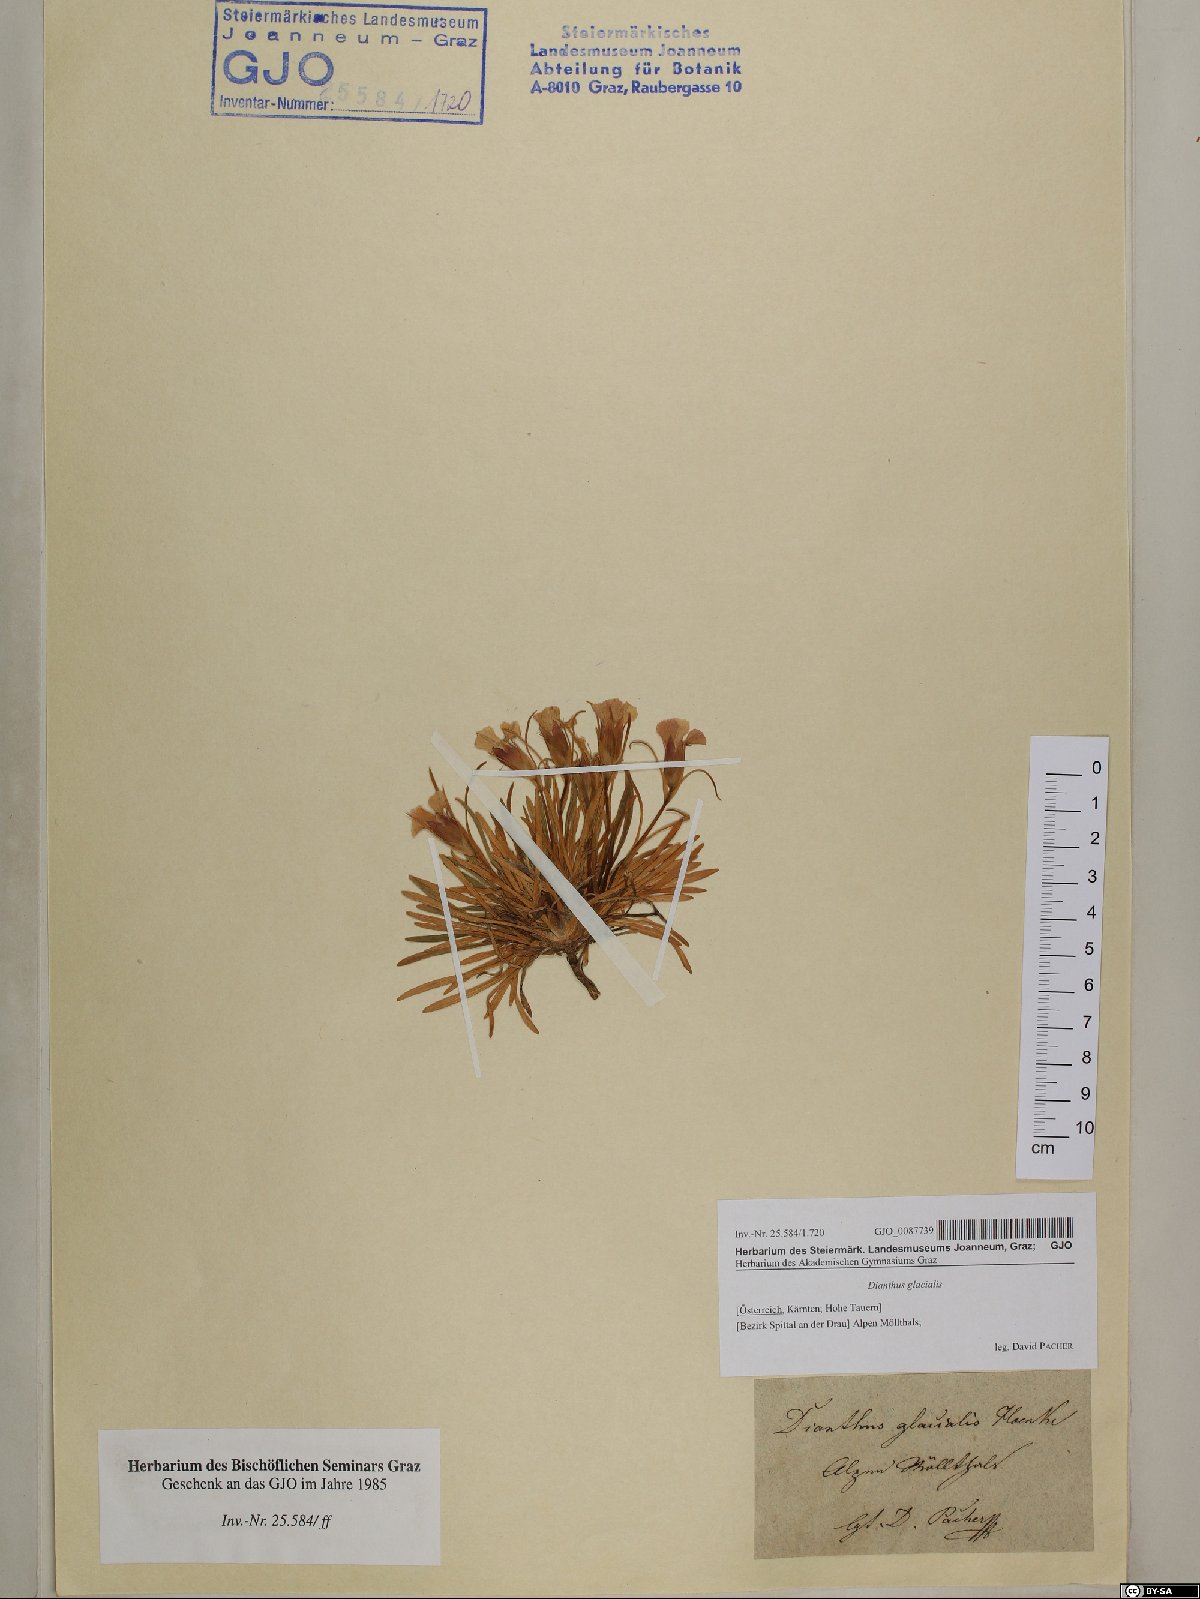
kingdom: Plantae
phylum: Tracheophyta
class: Magnoliopsida
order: Caryophyllales
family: Caryophyllaceae
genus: Dianthus
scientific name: Dianthus glacialis
